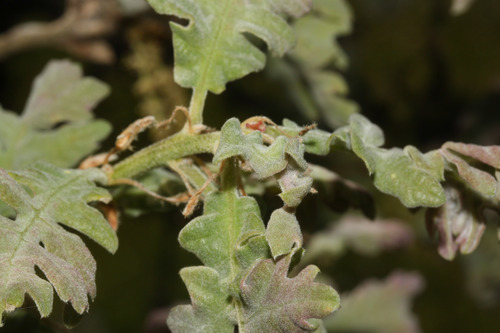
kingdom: Plantae
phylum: Tracheophyta
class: Magnoliopsida
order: Fagales
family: Fagaceae
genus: Quercus
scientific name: Quercus pyrenaica
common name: Pyrenean oak
